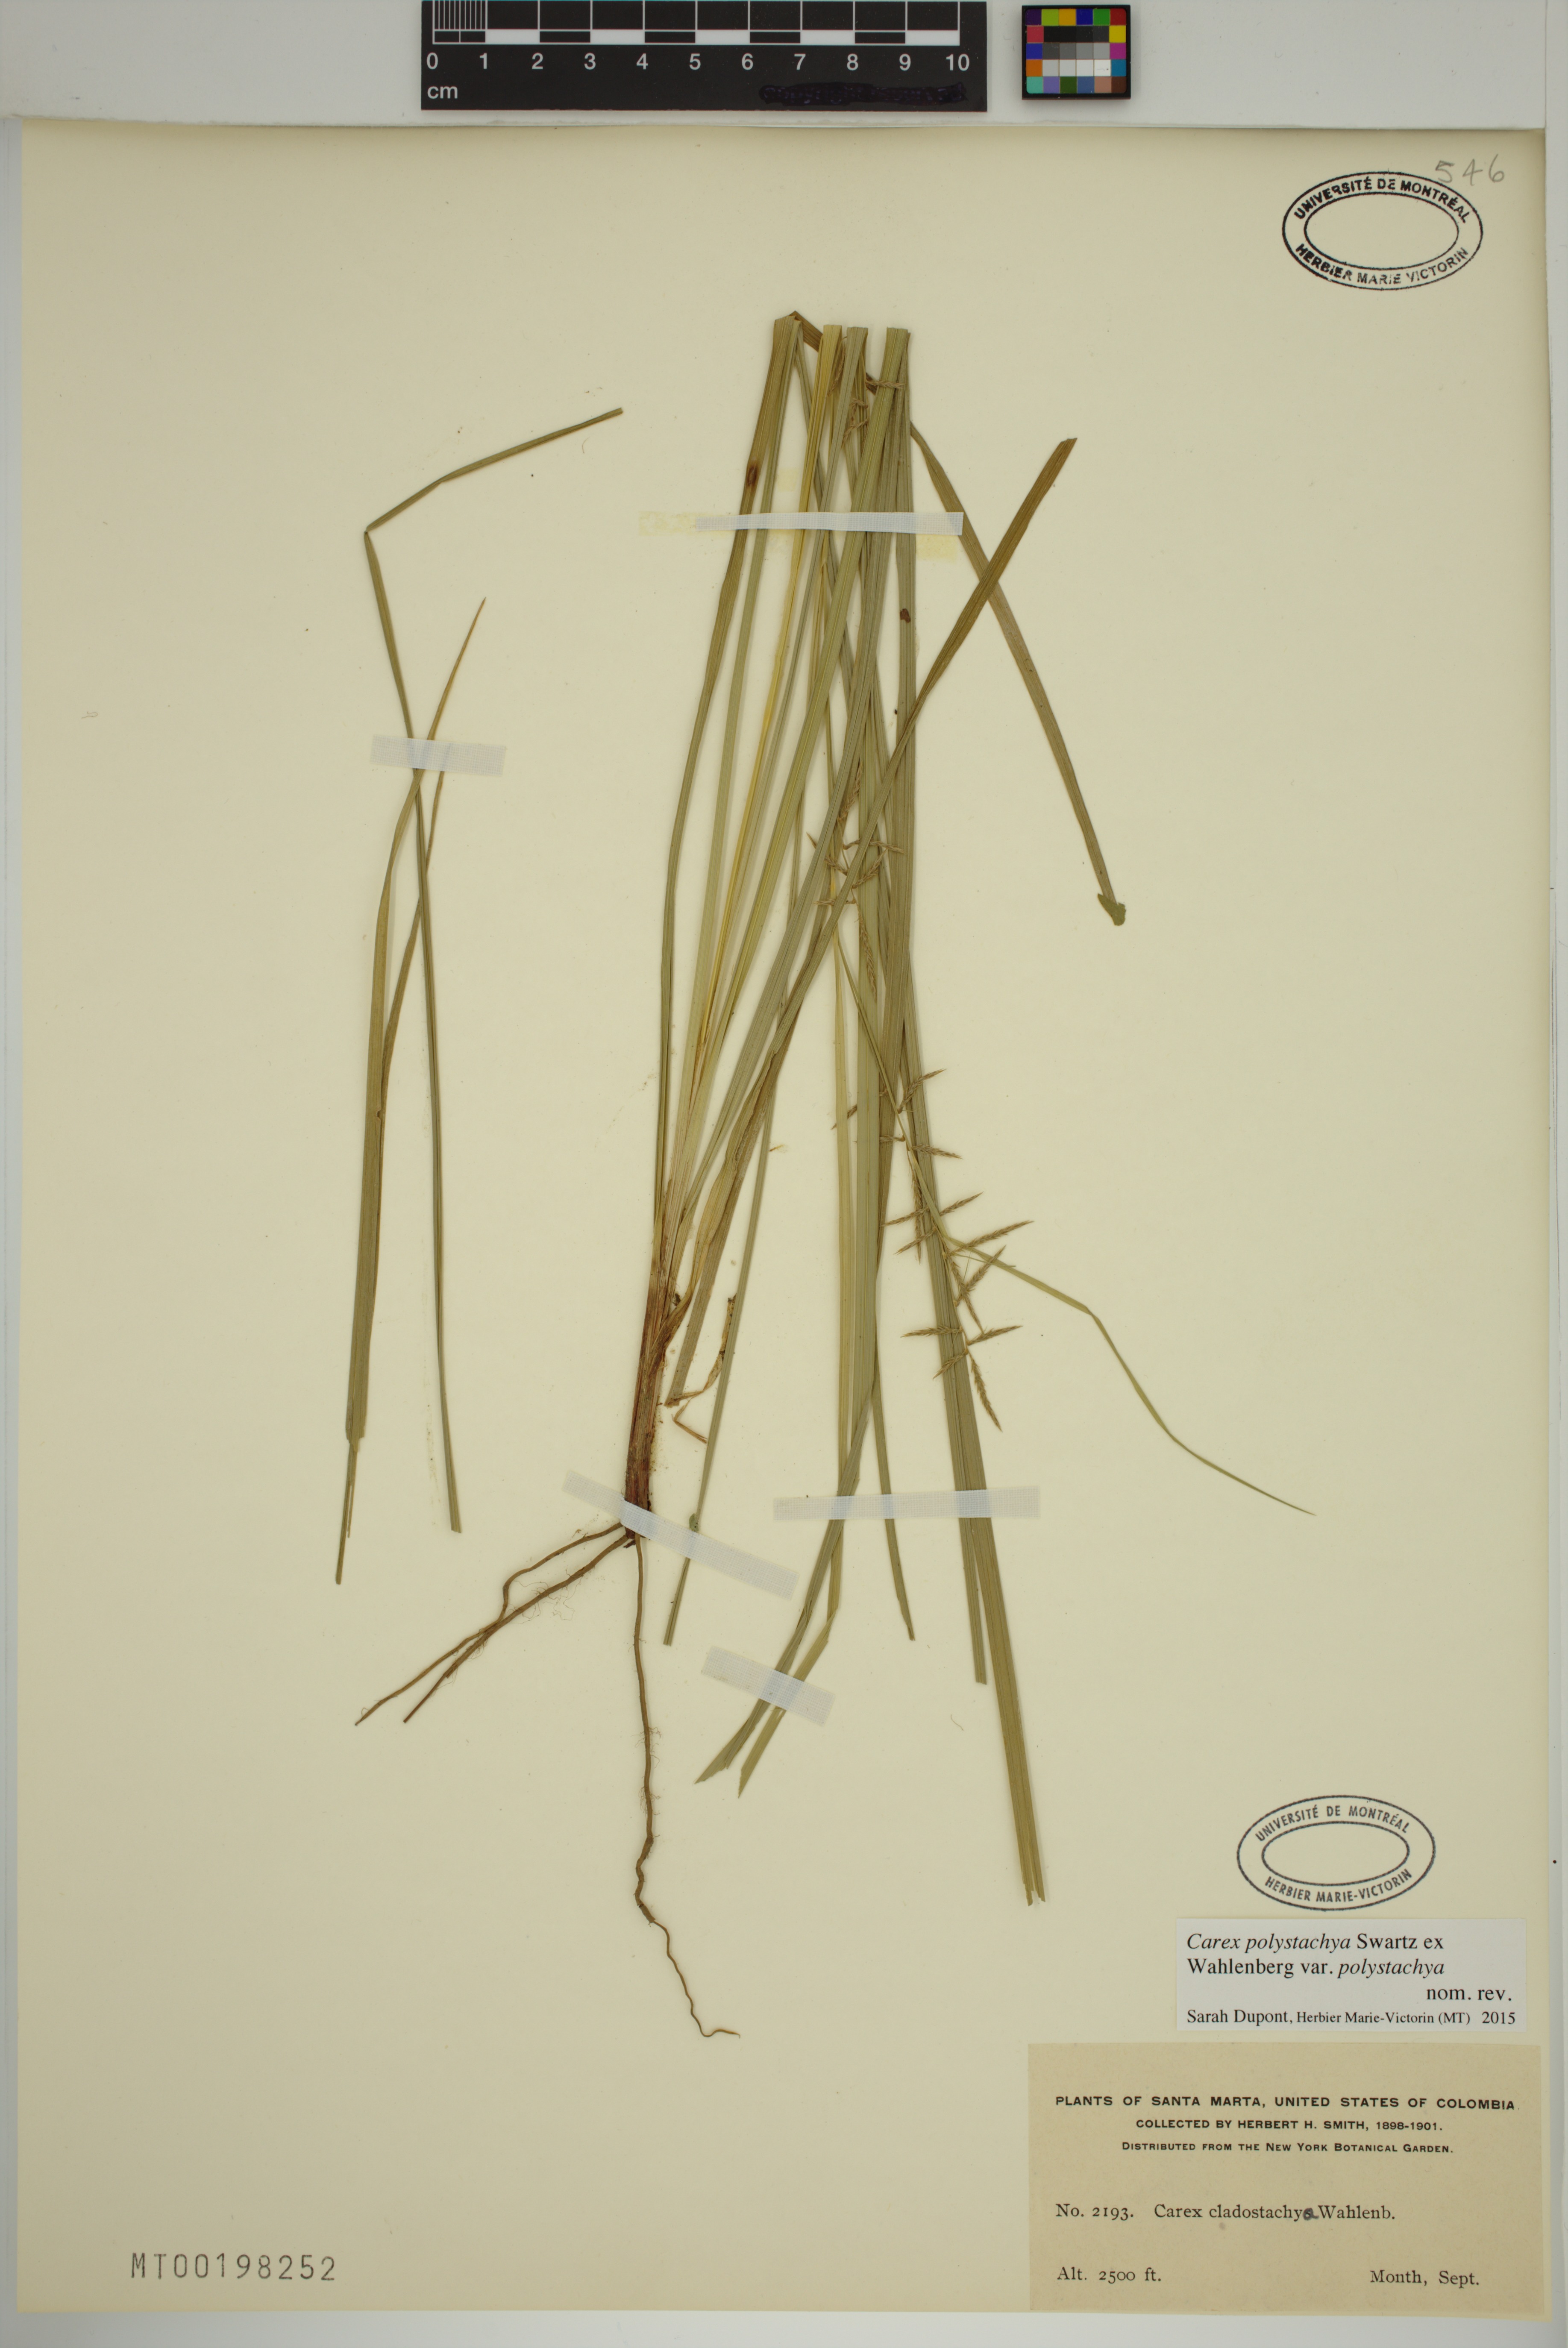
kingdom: Plantae
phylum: Tracheophyta
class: Liliopsida
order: Poales
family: Cyperaceae
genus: Carex
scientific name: Carex polystachya
